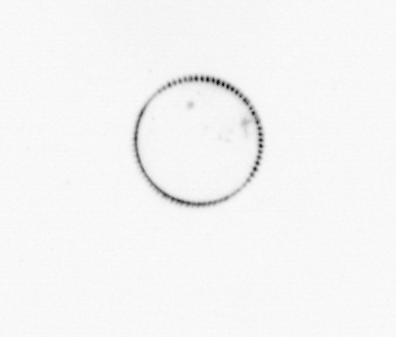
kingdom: Chromista
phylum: Myzozoa
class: Dinophyceae
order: Noctilucales
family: Noctilucaceae
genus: Noctiluca
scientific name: Noctiluca scintillans
